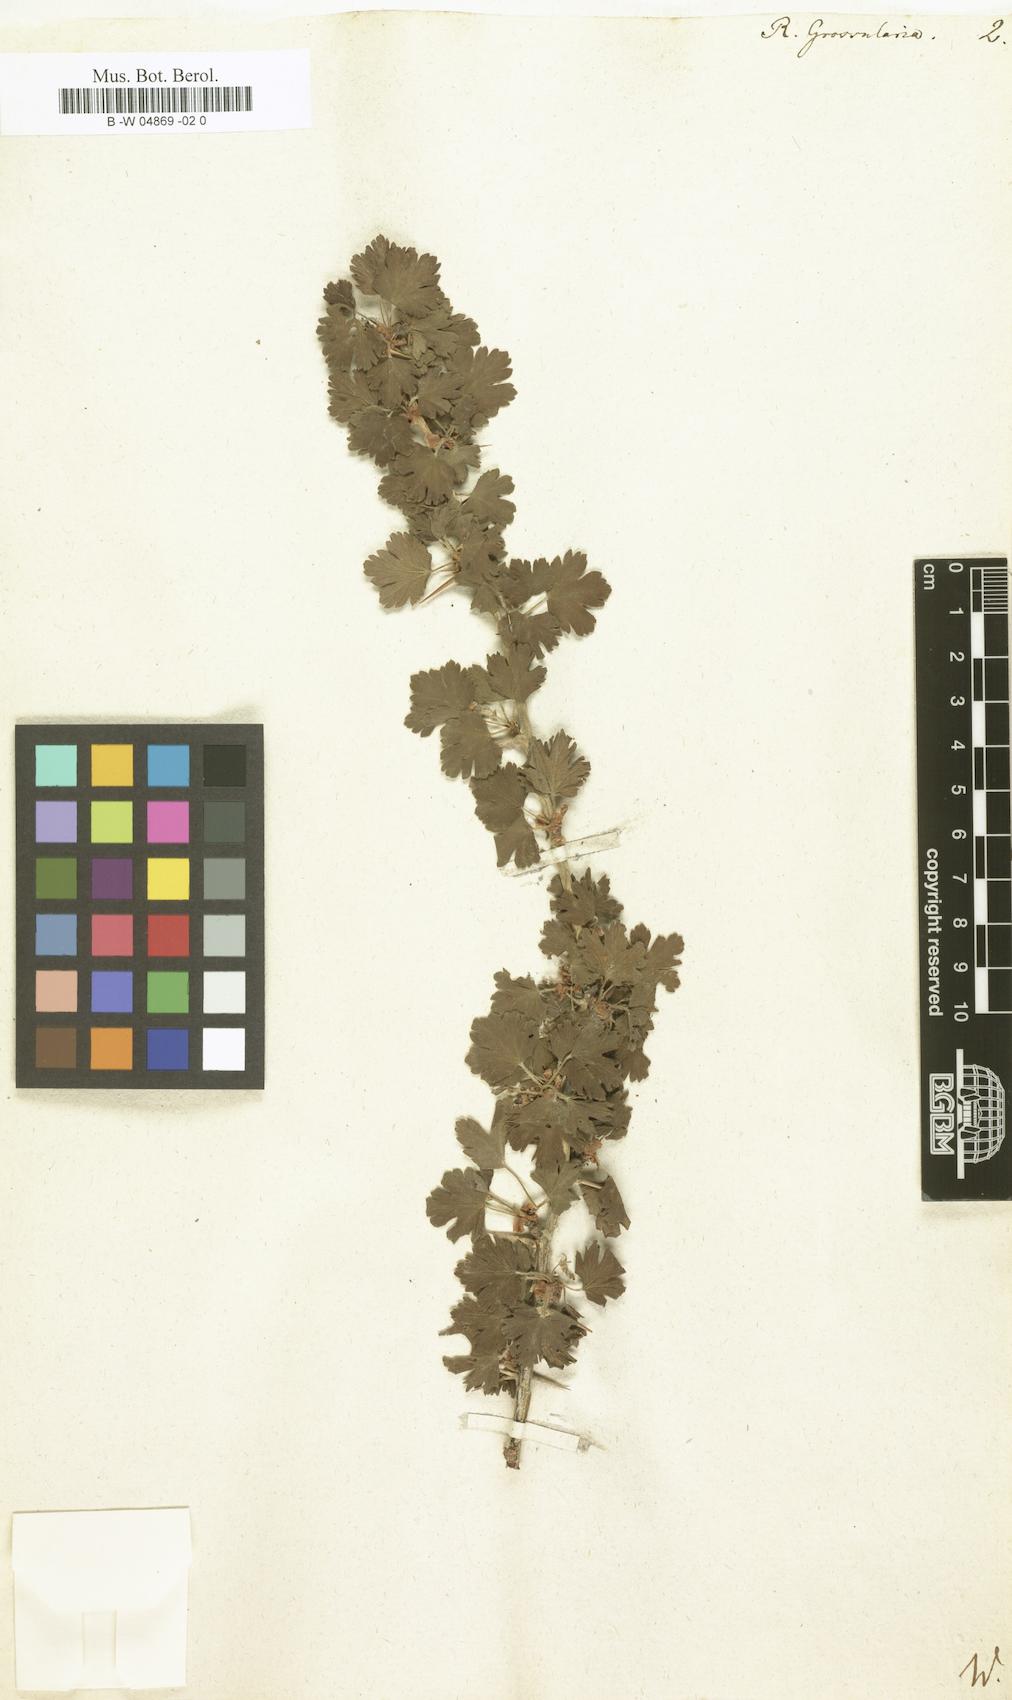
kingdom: Plantae
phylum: Tracheophyta
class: Magnoliopsida
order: Saxifragales
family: Grossulariaceae
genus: Ribes
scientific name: Ribes uva-crispa
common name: Gooseberry
